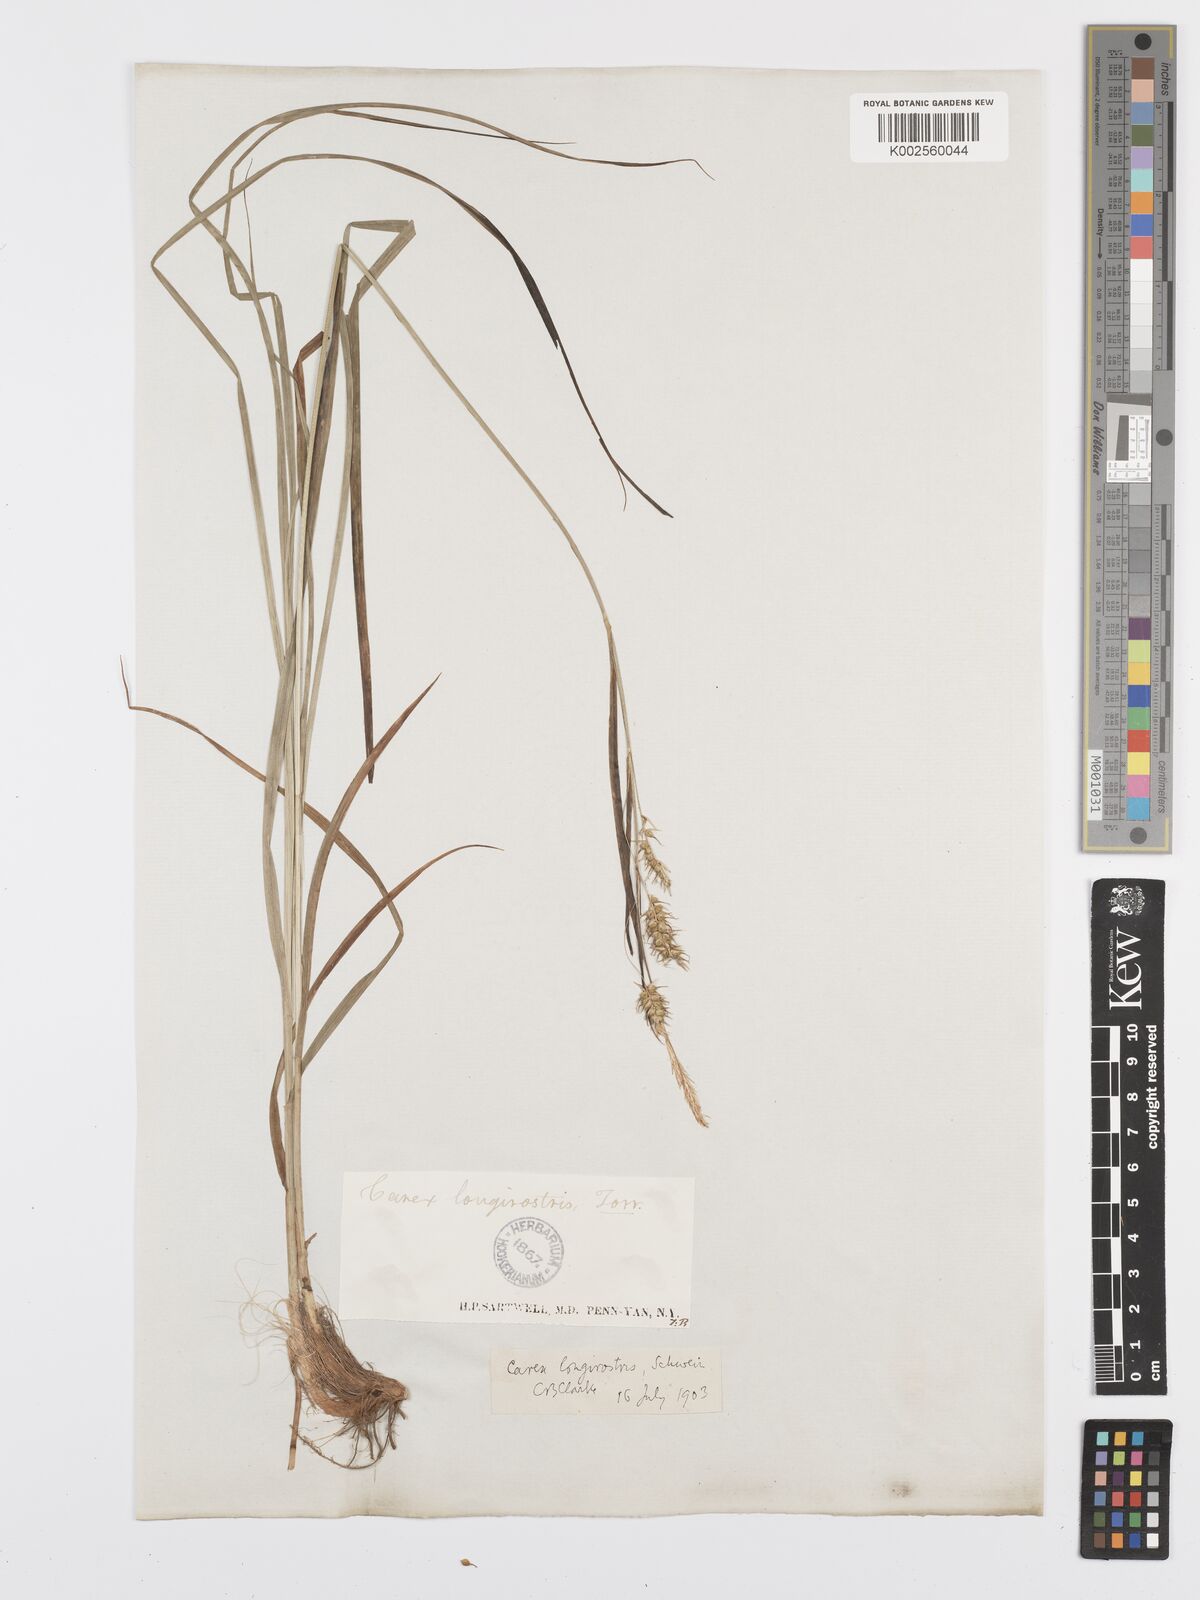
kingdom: Plantae
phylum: Tracheophyta
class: Liliopsida
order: Poales
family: Cyperaceae
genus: Carex
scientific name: Carex sprengelii
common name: Long-beaked sedge
